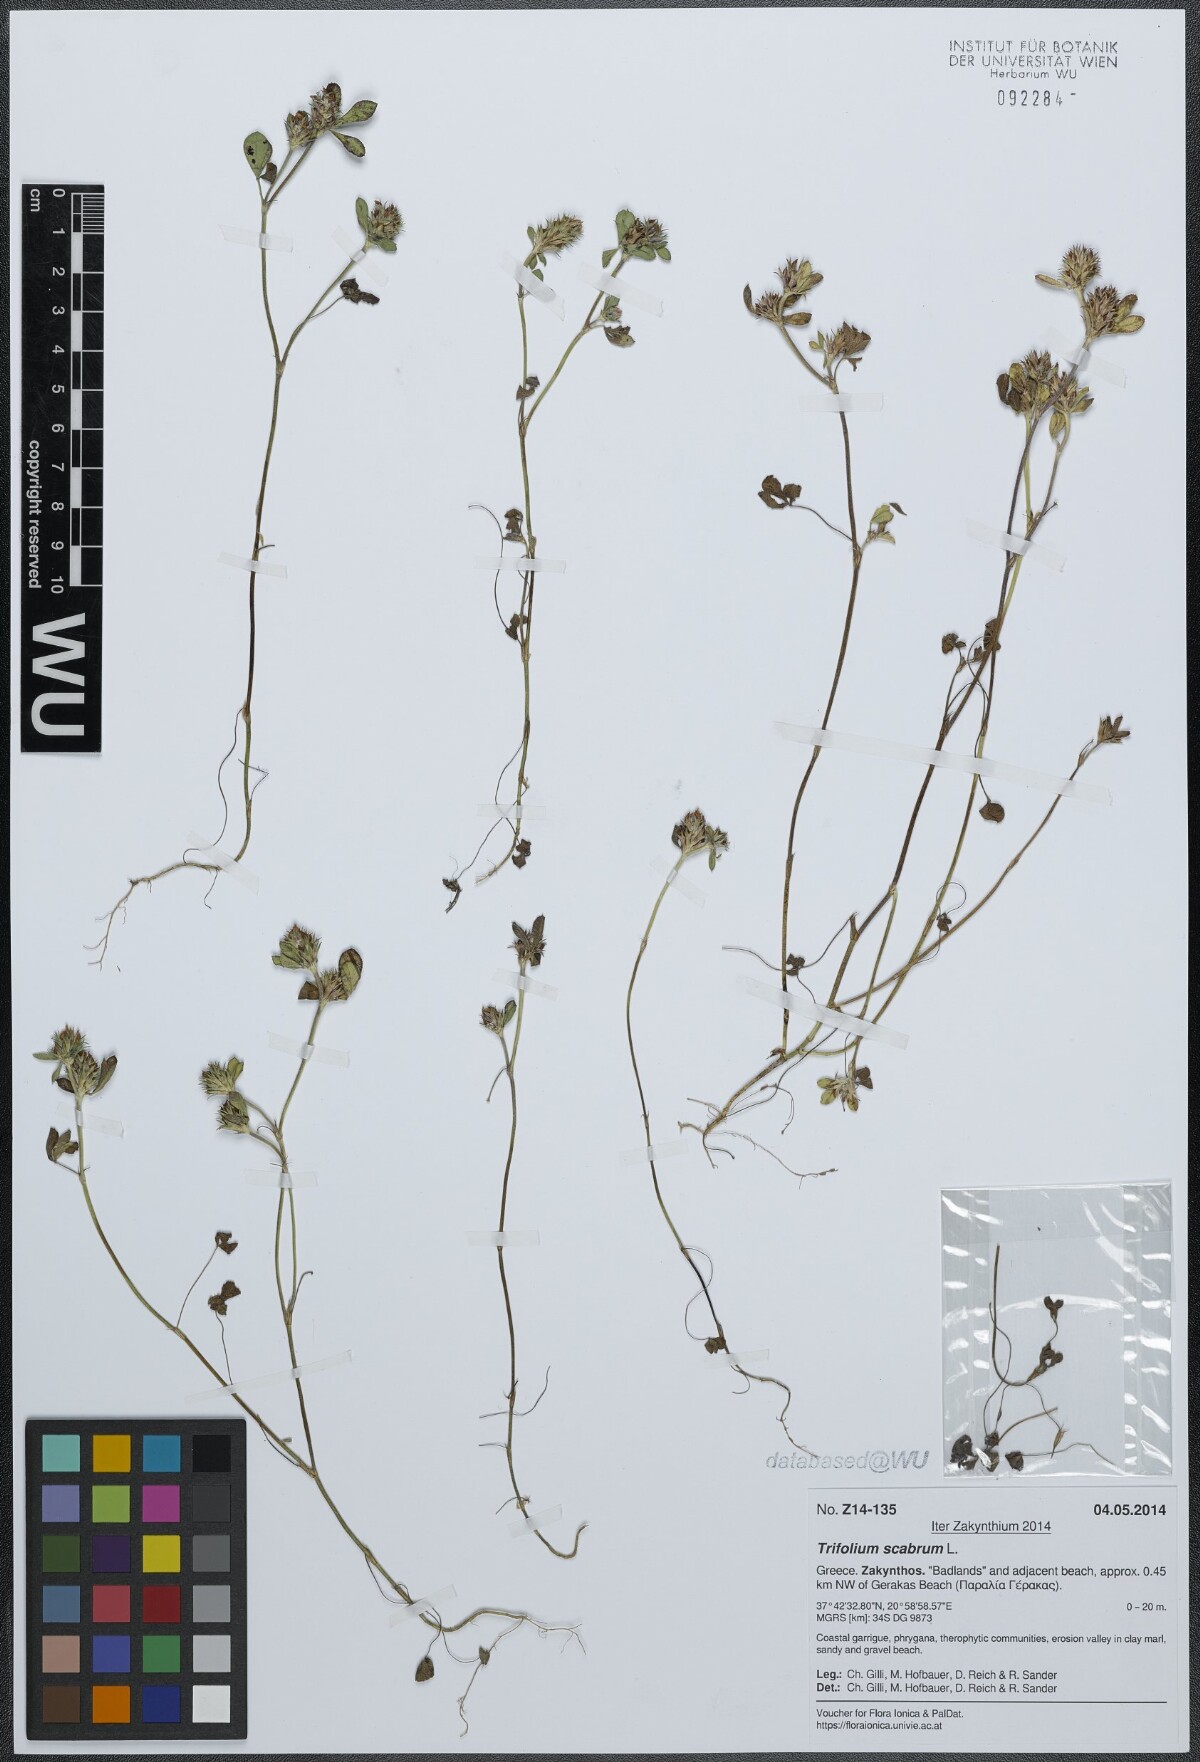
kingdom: Plantae
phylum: Tracheophyta
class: Magnoliopsida
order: Fabales
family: Fabaceae
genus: Trifolium
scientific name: Trifolium scabrum
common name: Rough clover
